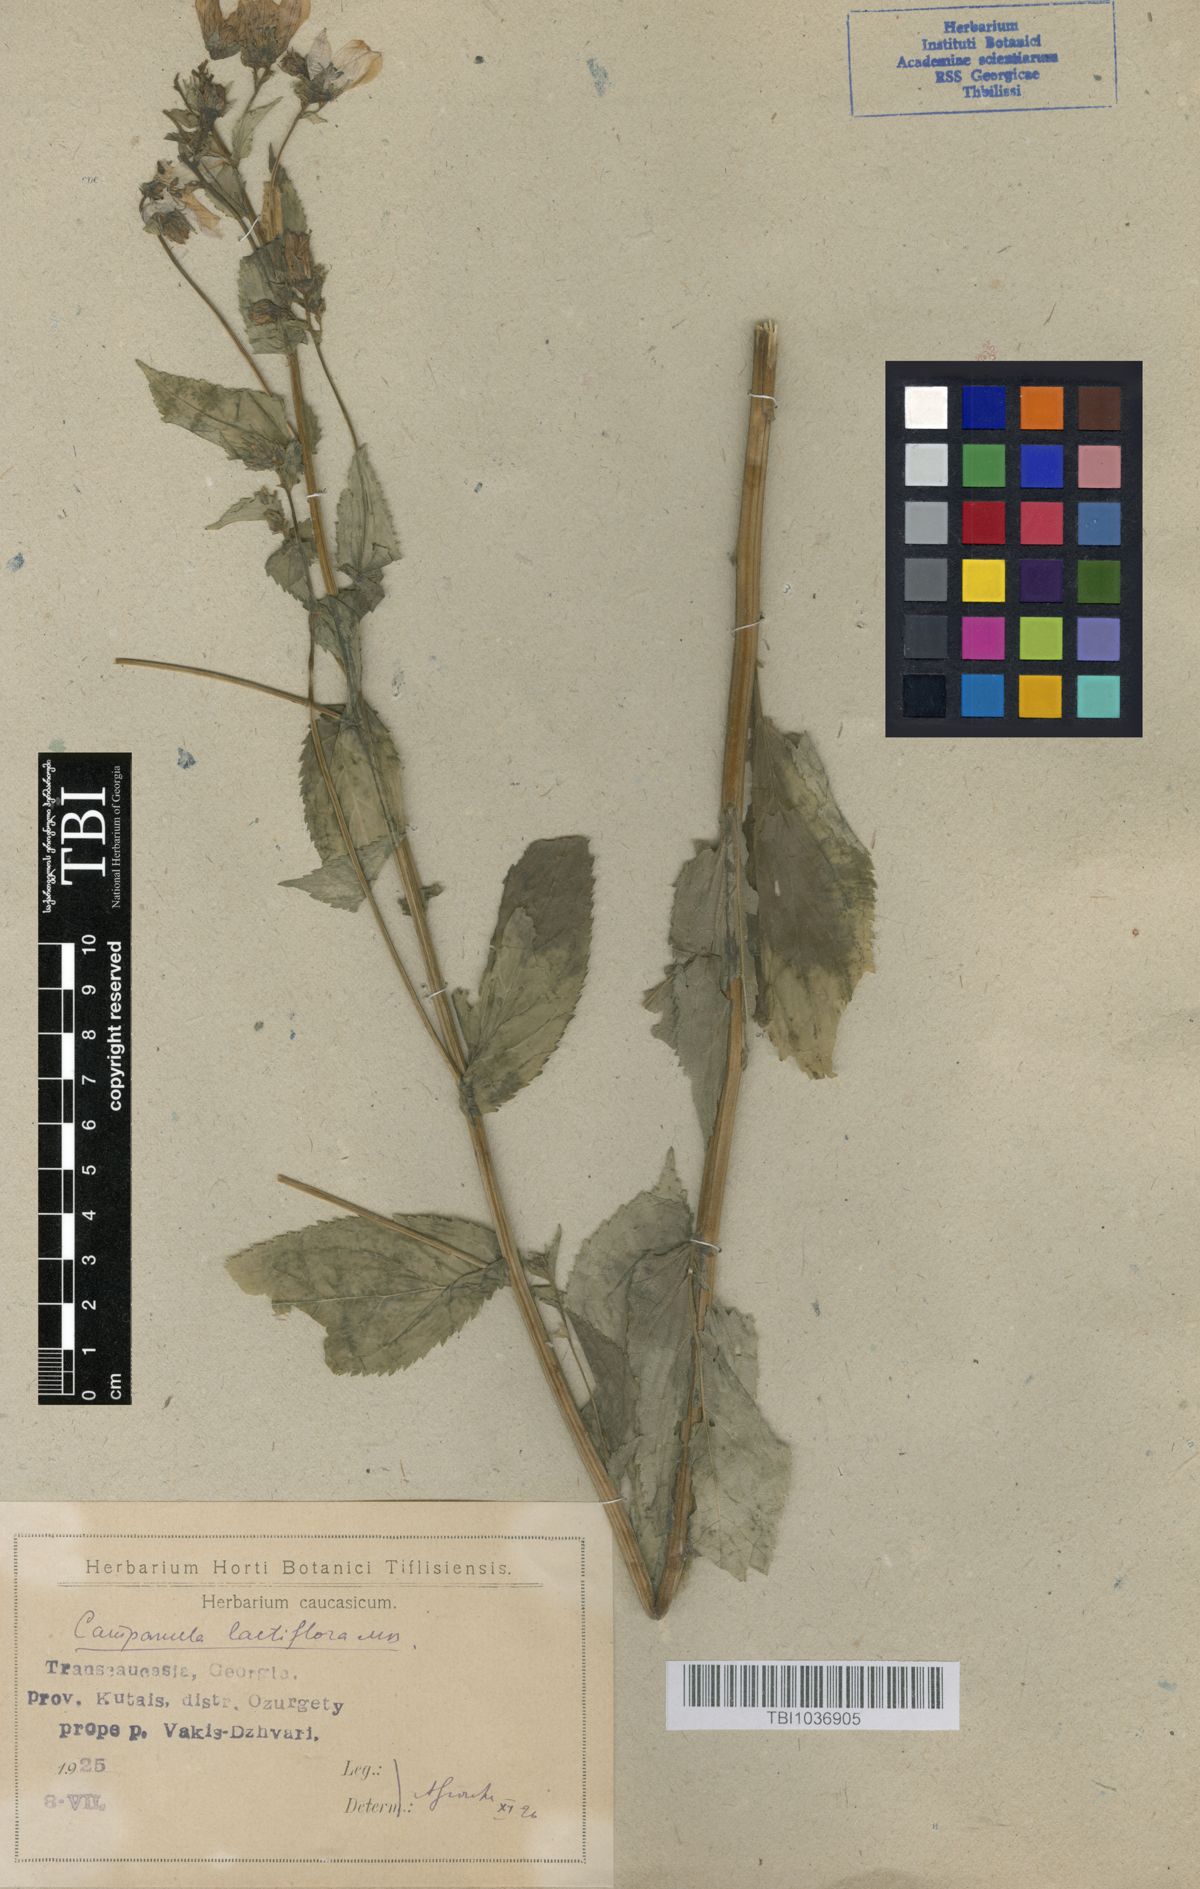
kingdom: Plantae
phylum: Tracheophyta
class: Magnoliopsida
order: Asterales
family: Campanulaceae
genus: Campanula
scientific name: Campanula lactiflora
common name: Milky bellflower
